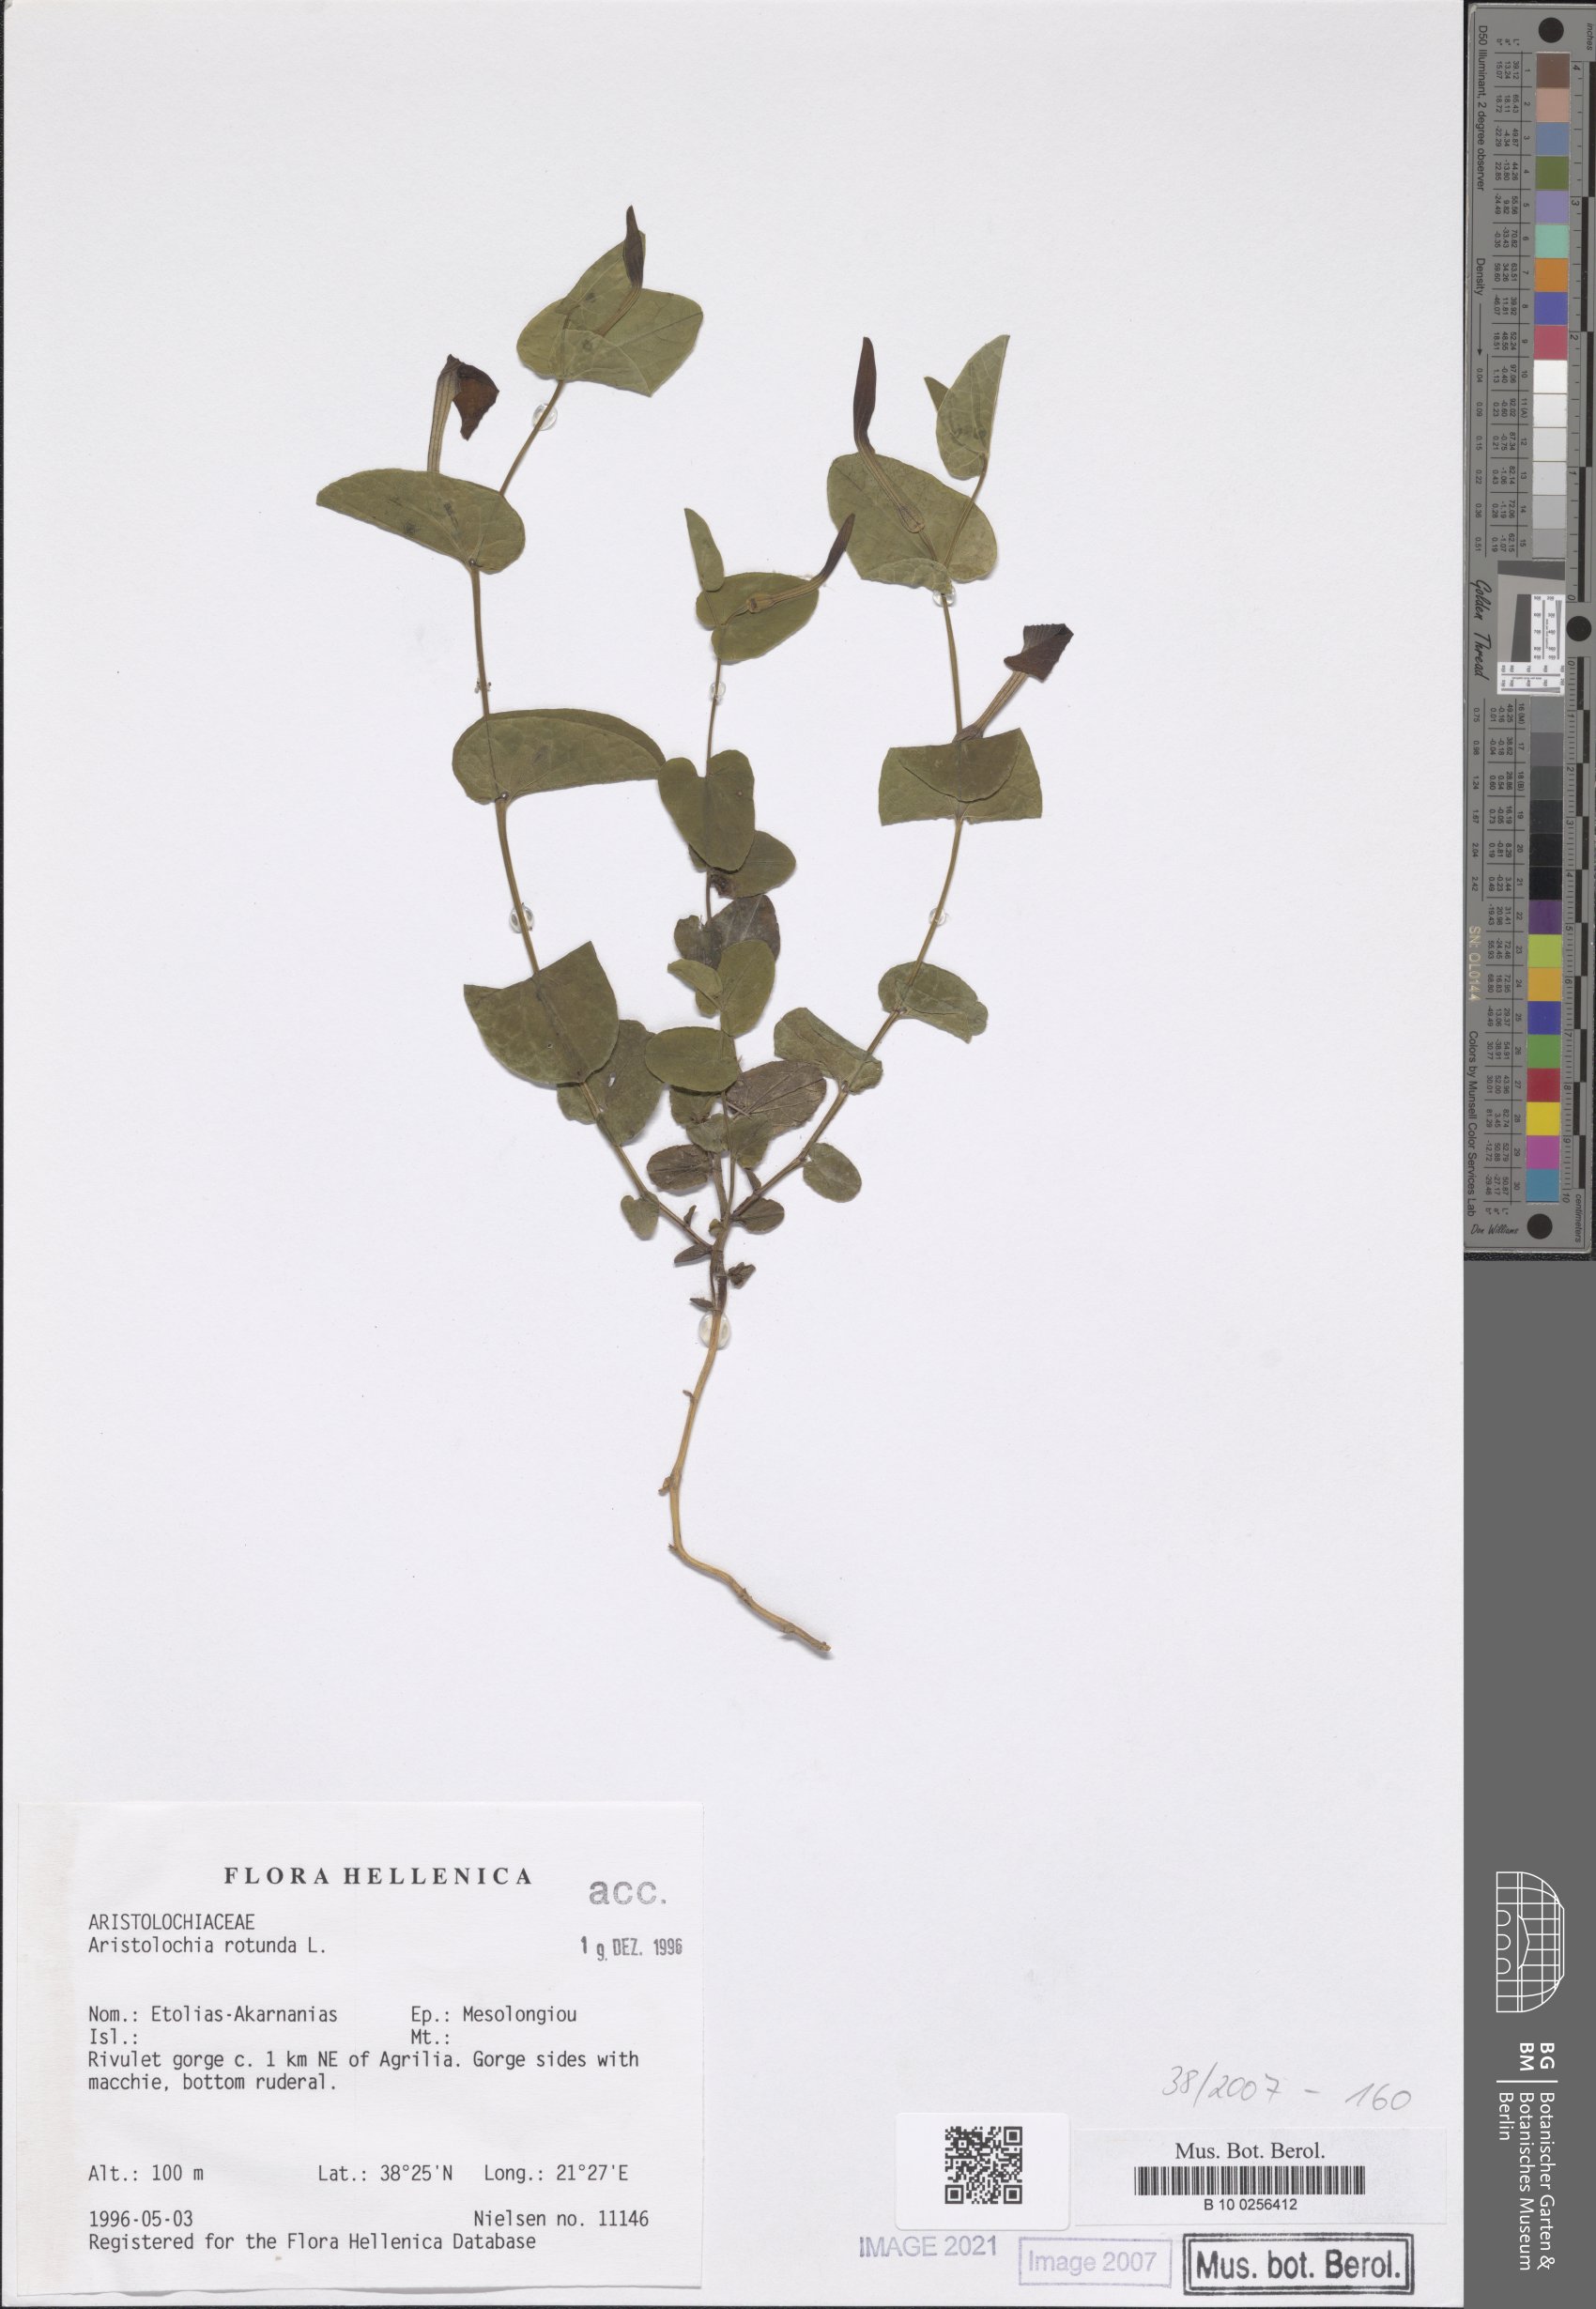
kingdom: Plantae
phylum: Tracheophyta
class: Magnoliopsida
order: Piperales
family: Aristolochiaceae
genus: Aristolochia
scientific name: Aristolochia rotunda
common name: Smearwort
